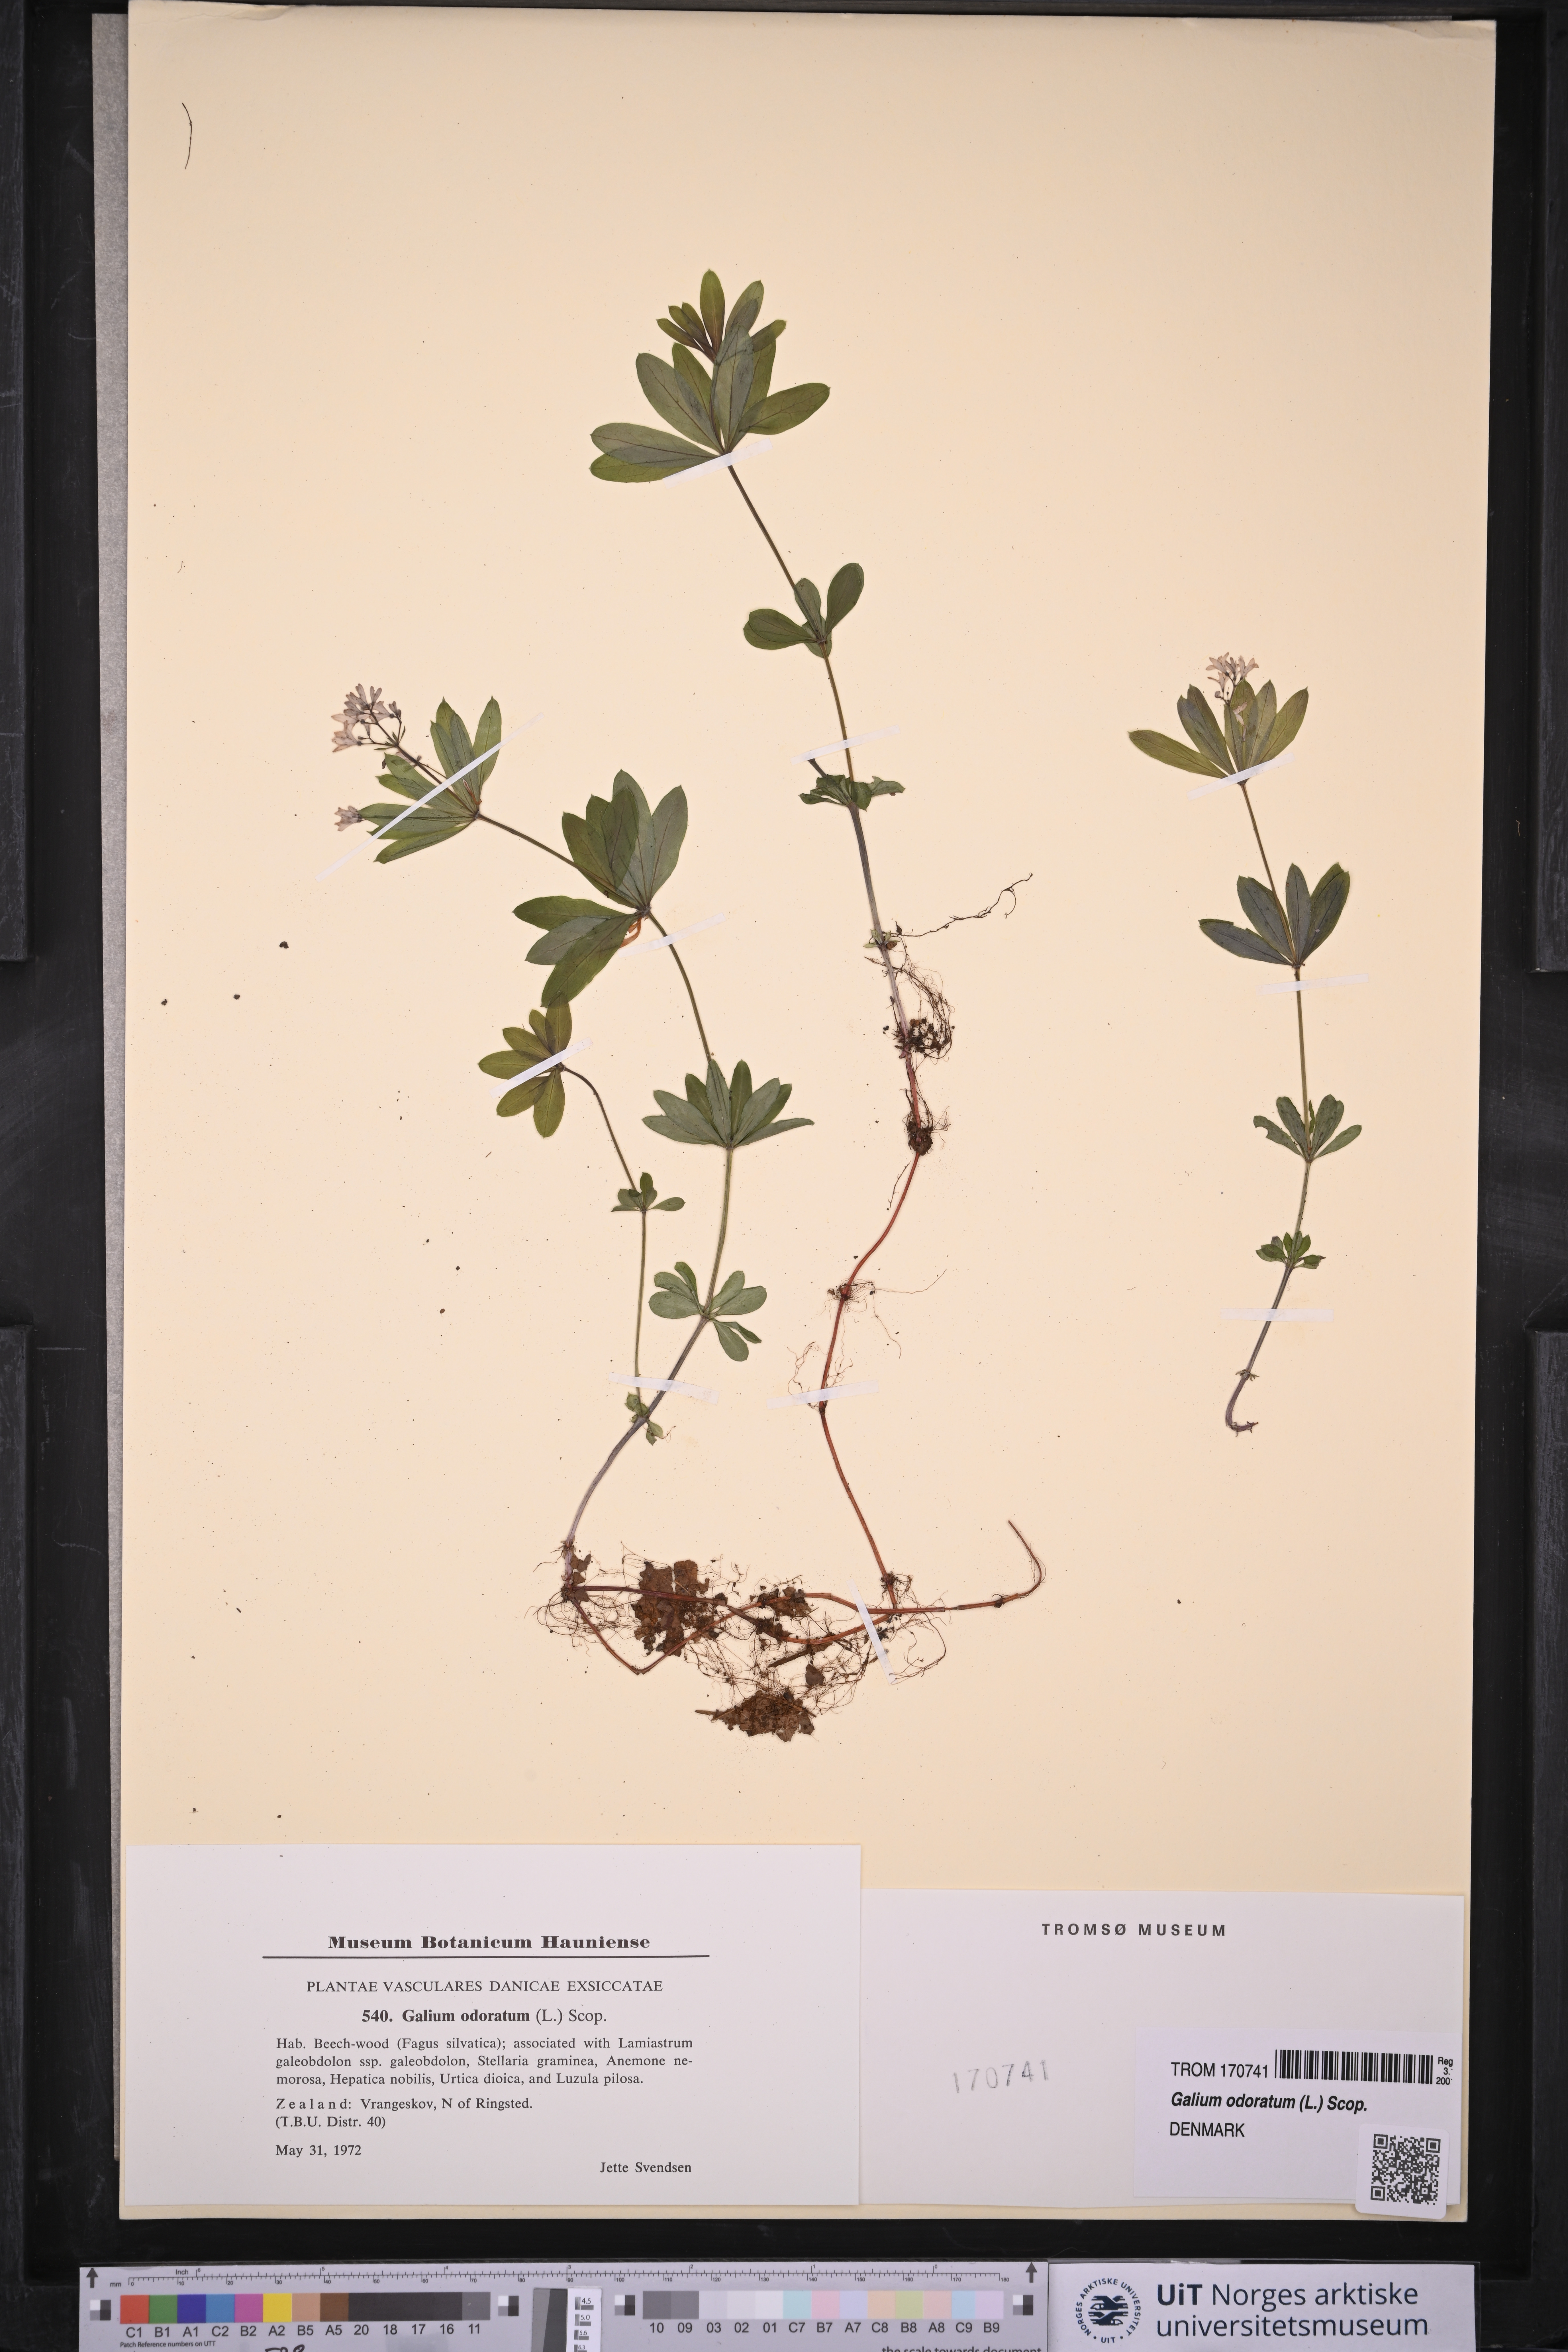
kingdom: Plantae
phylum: Tracheophyta
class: Magnoliopsida
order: Gentianales
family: Rubiaceae
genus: Galium
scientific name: Galium odoratum
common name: Sweet woodruff
